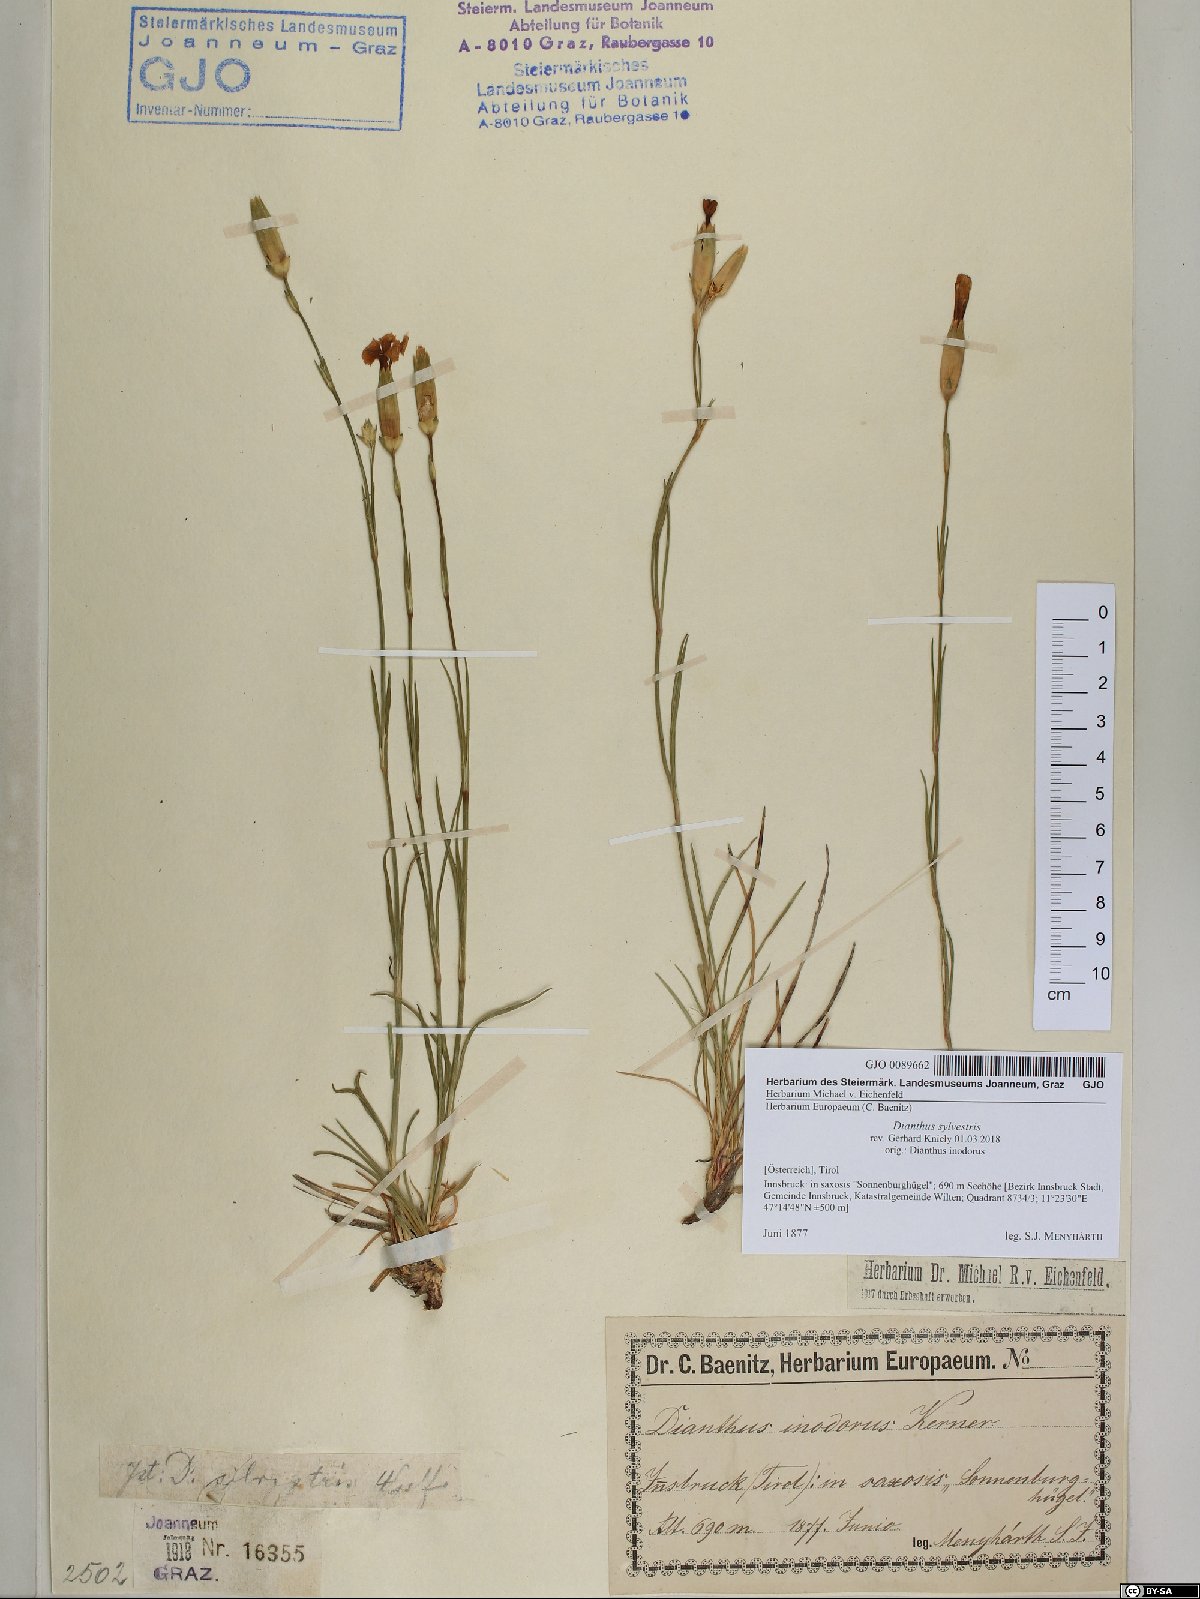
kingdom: Plantae
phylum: Tracheophyta
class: Magnoliopsida
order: Caryophyllales
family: Caryophyllaceae
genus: Dianthus
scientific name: Dianthus sylvestris
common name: Wood pink
